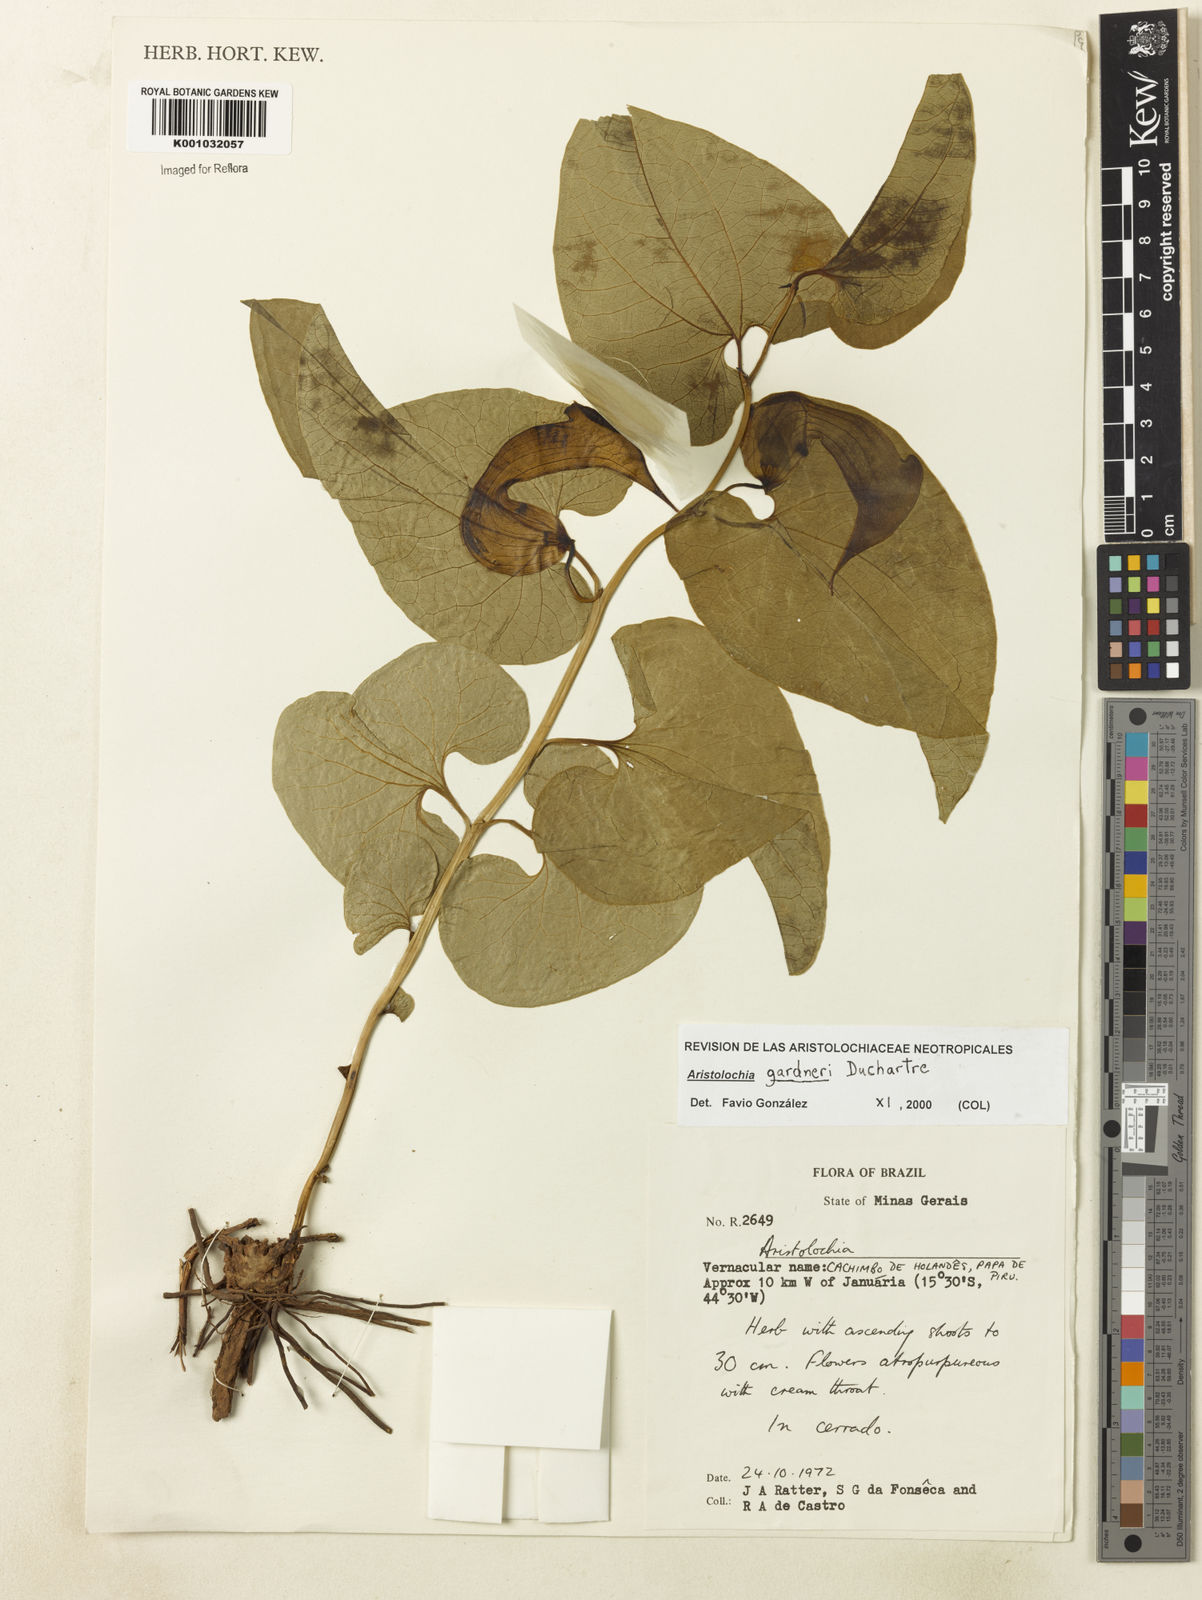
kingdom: Plantae
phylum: Tracheophyta
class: Magnoliopsida
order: Piperales
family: Aristolochiaceae
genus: Aristolochia
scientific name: Aristolochia gardneri
